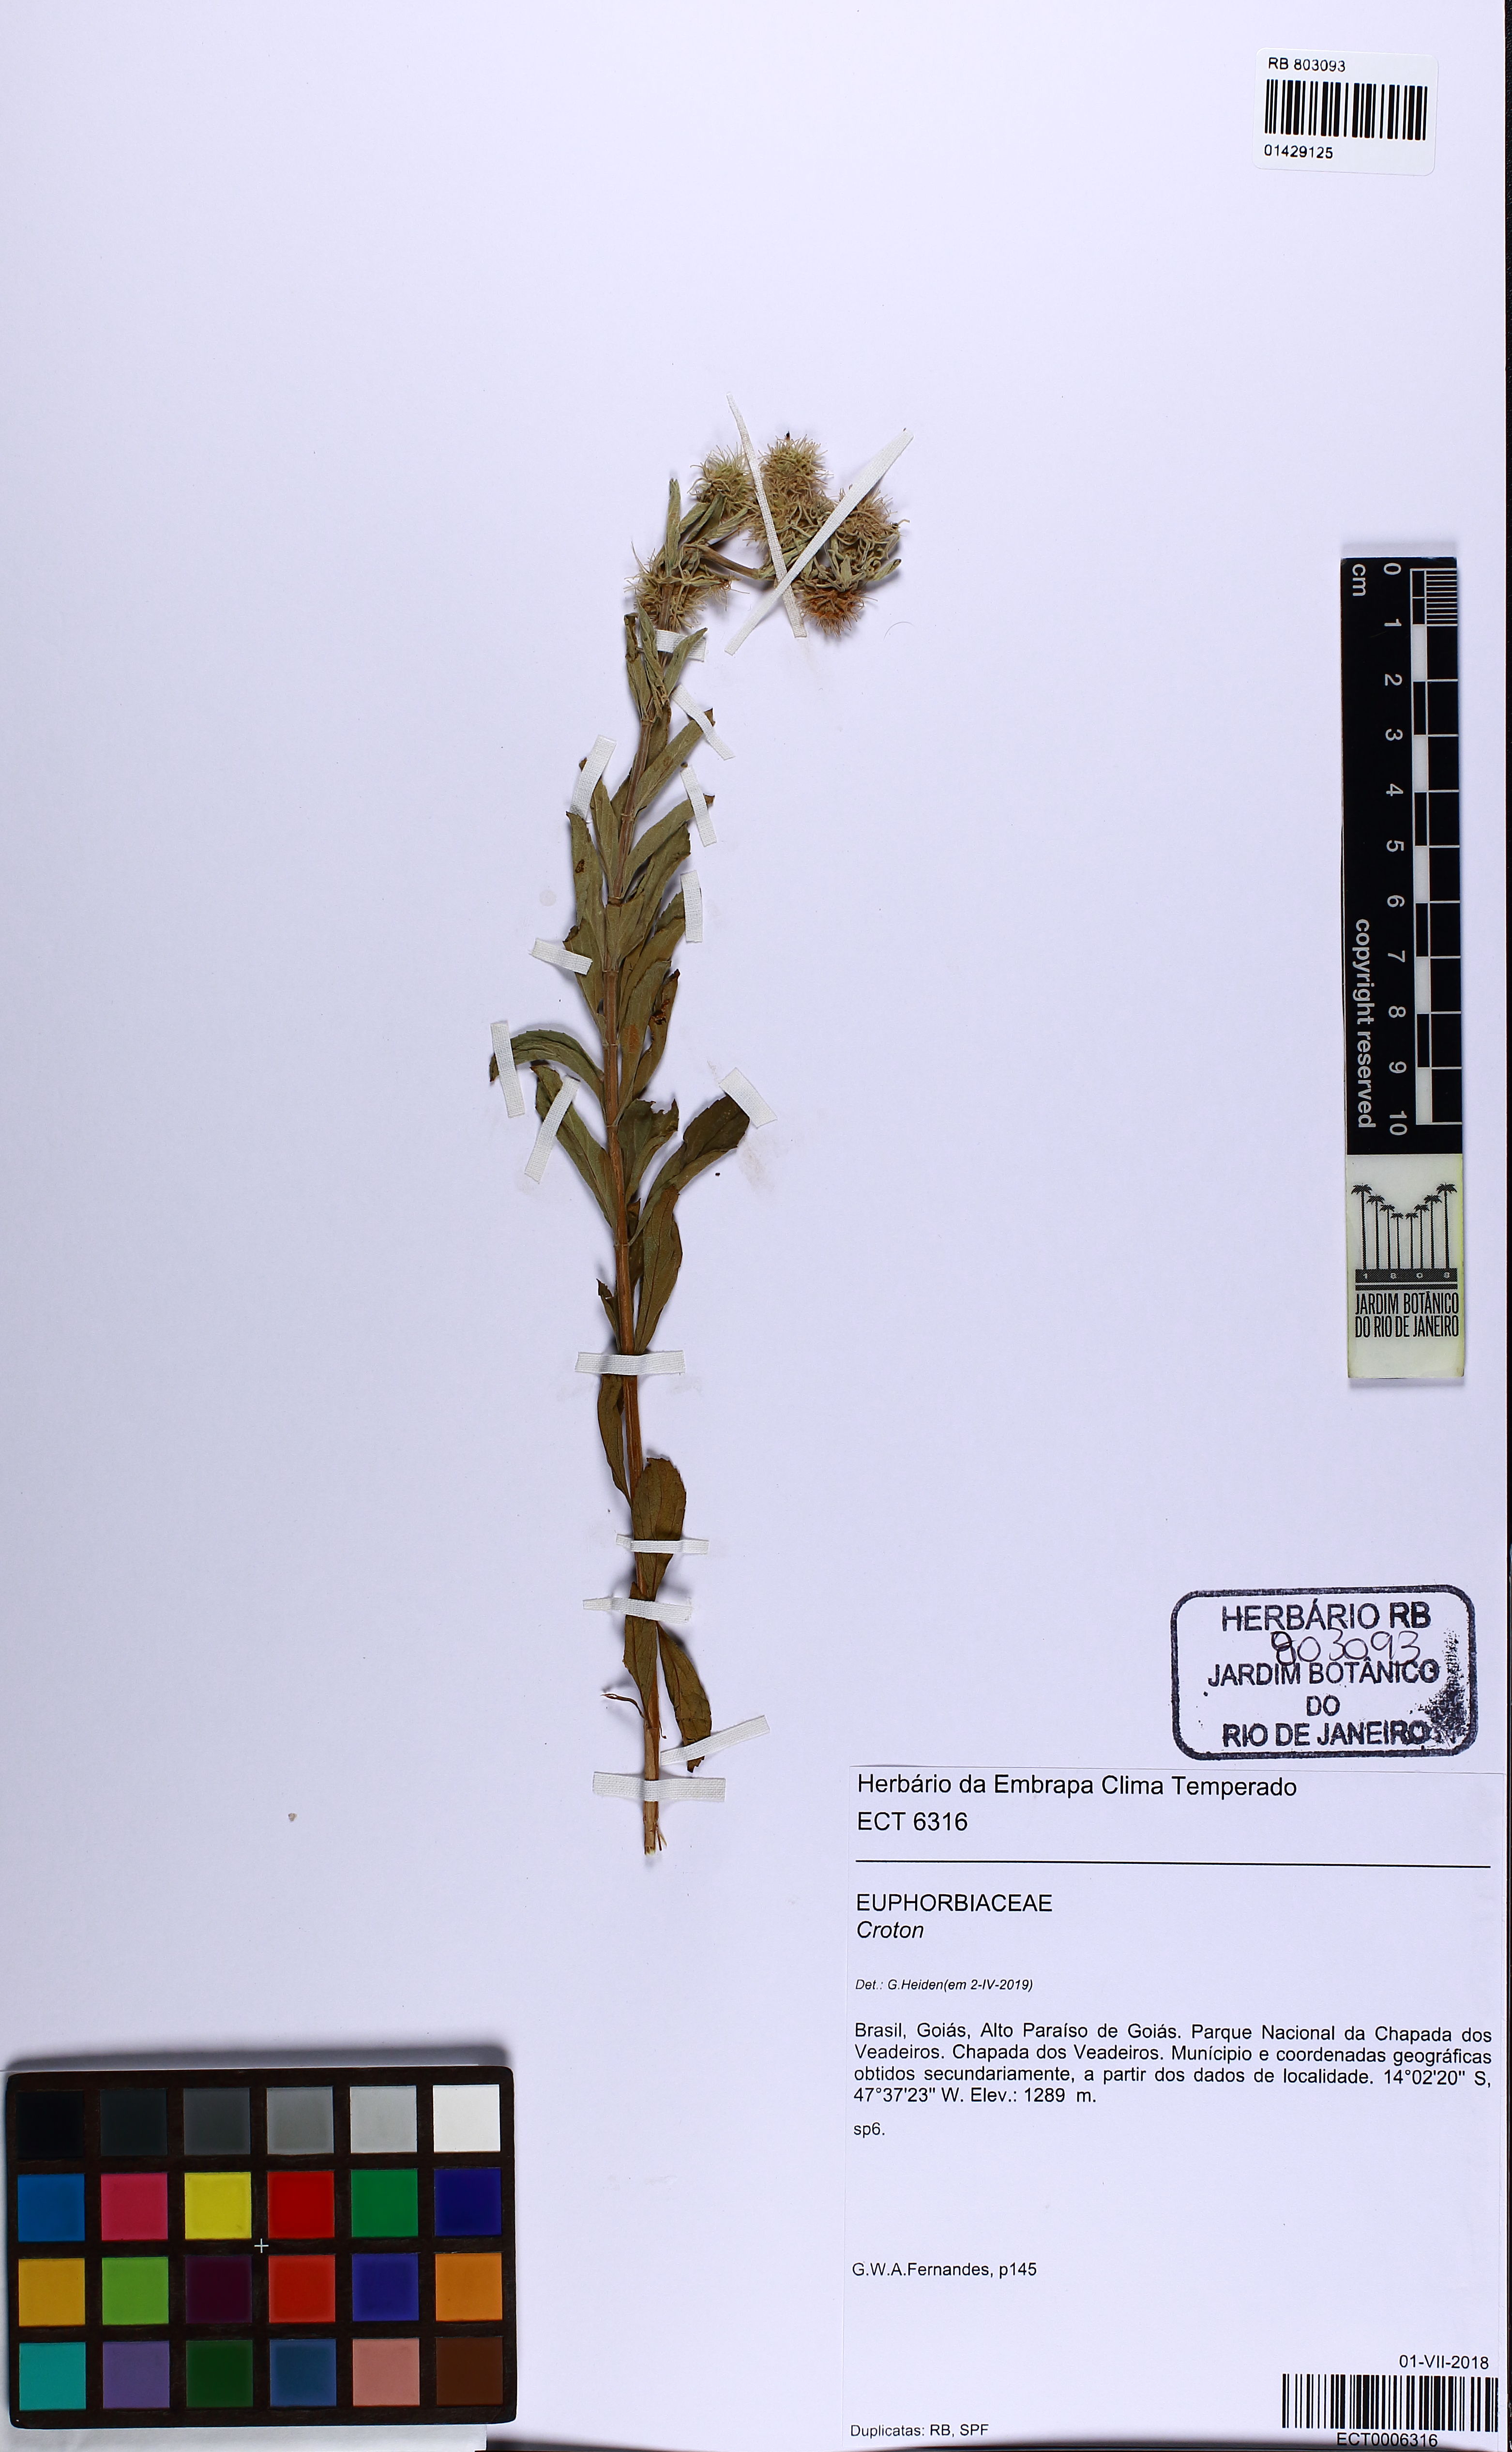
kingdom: Plantae
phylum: Tracheophyta
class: Magnoliopsida
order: Lamiales
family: Lamiaceae
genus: Medusantha
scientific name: Medusantha crinita
